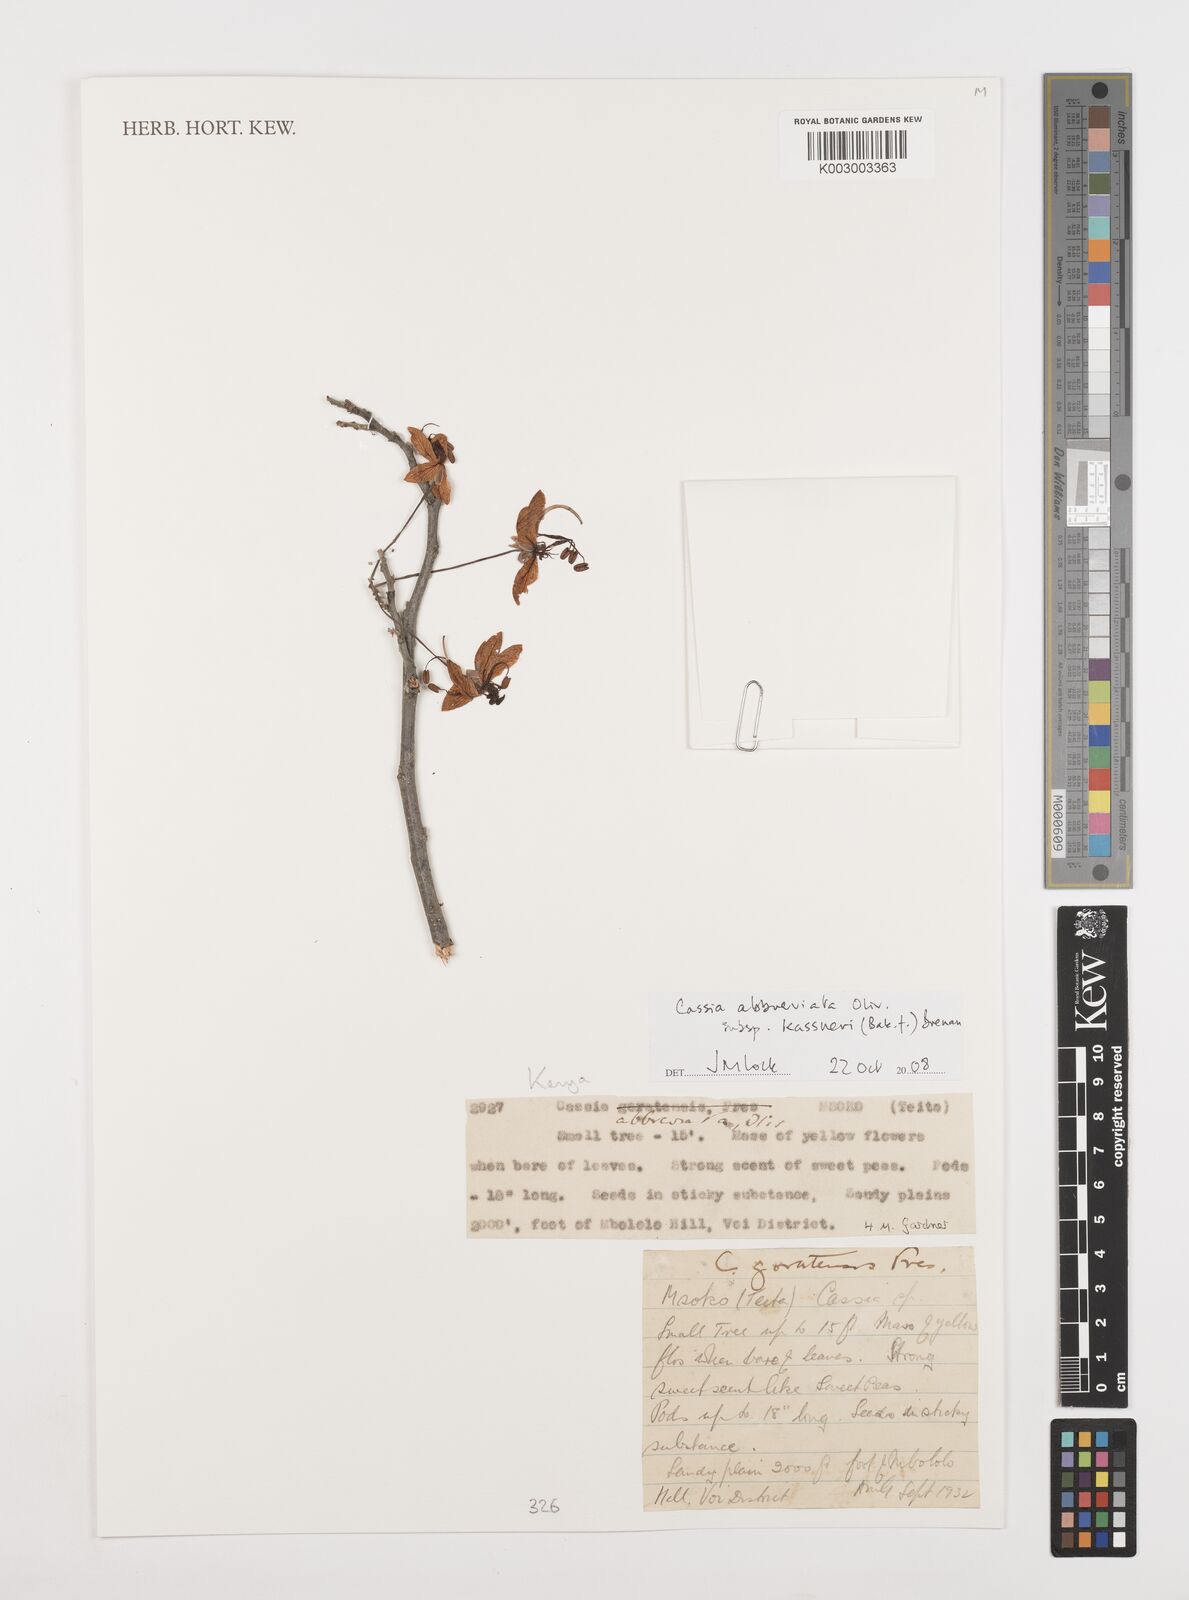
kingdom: Plantae
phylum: Tracheophyta
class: Magnoliopsida
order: Fabales
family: Fabaceae
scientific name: Fabaceae
